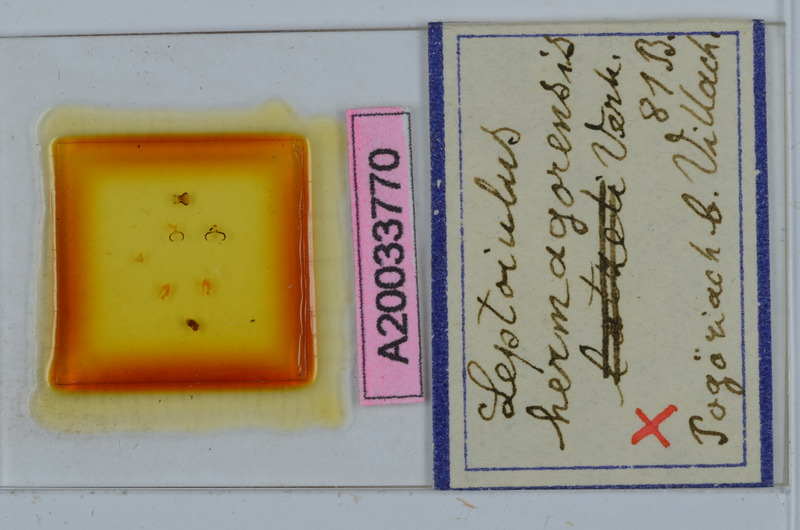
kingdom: Animalia
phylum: Arthropoda
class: Diplopoda
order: Julida
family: Julidae
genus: Leptoiulus
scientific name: Leptoiulus vagabundus
